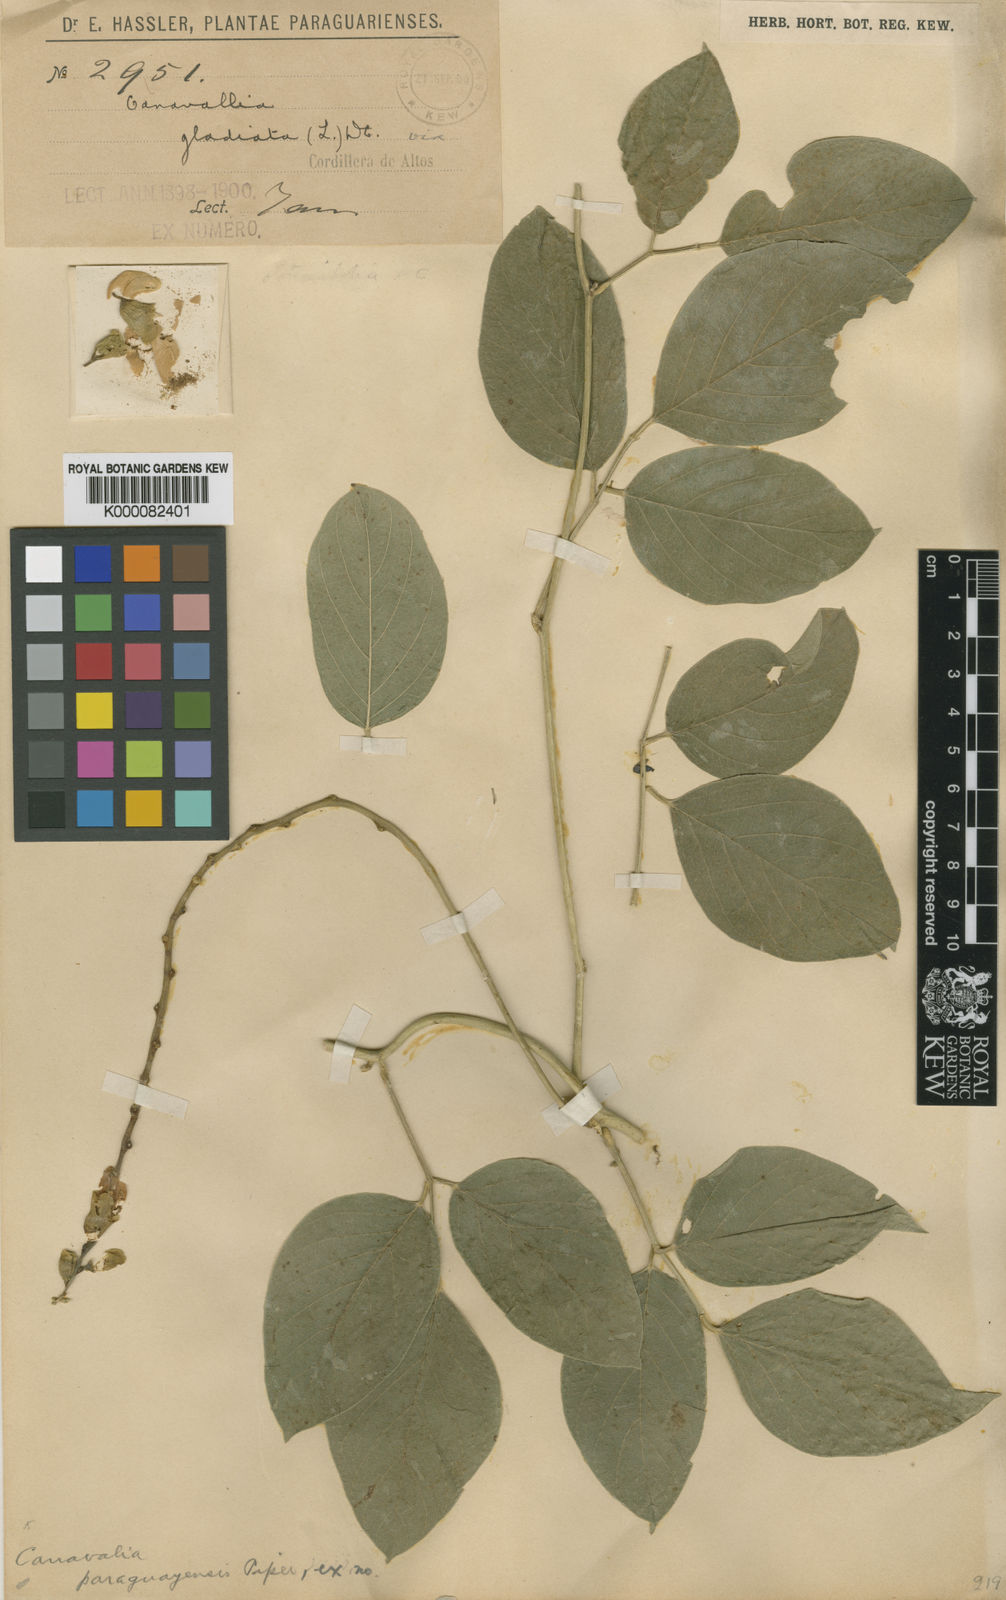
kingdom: Plantae
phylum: Tracheophyta
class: Magnoliopsida
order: Fabales
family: Fabaceae
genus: Canavalia
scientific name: Canavalia gladiata
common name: Scimitar-bean
